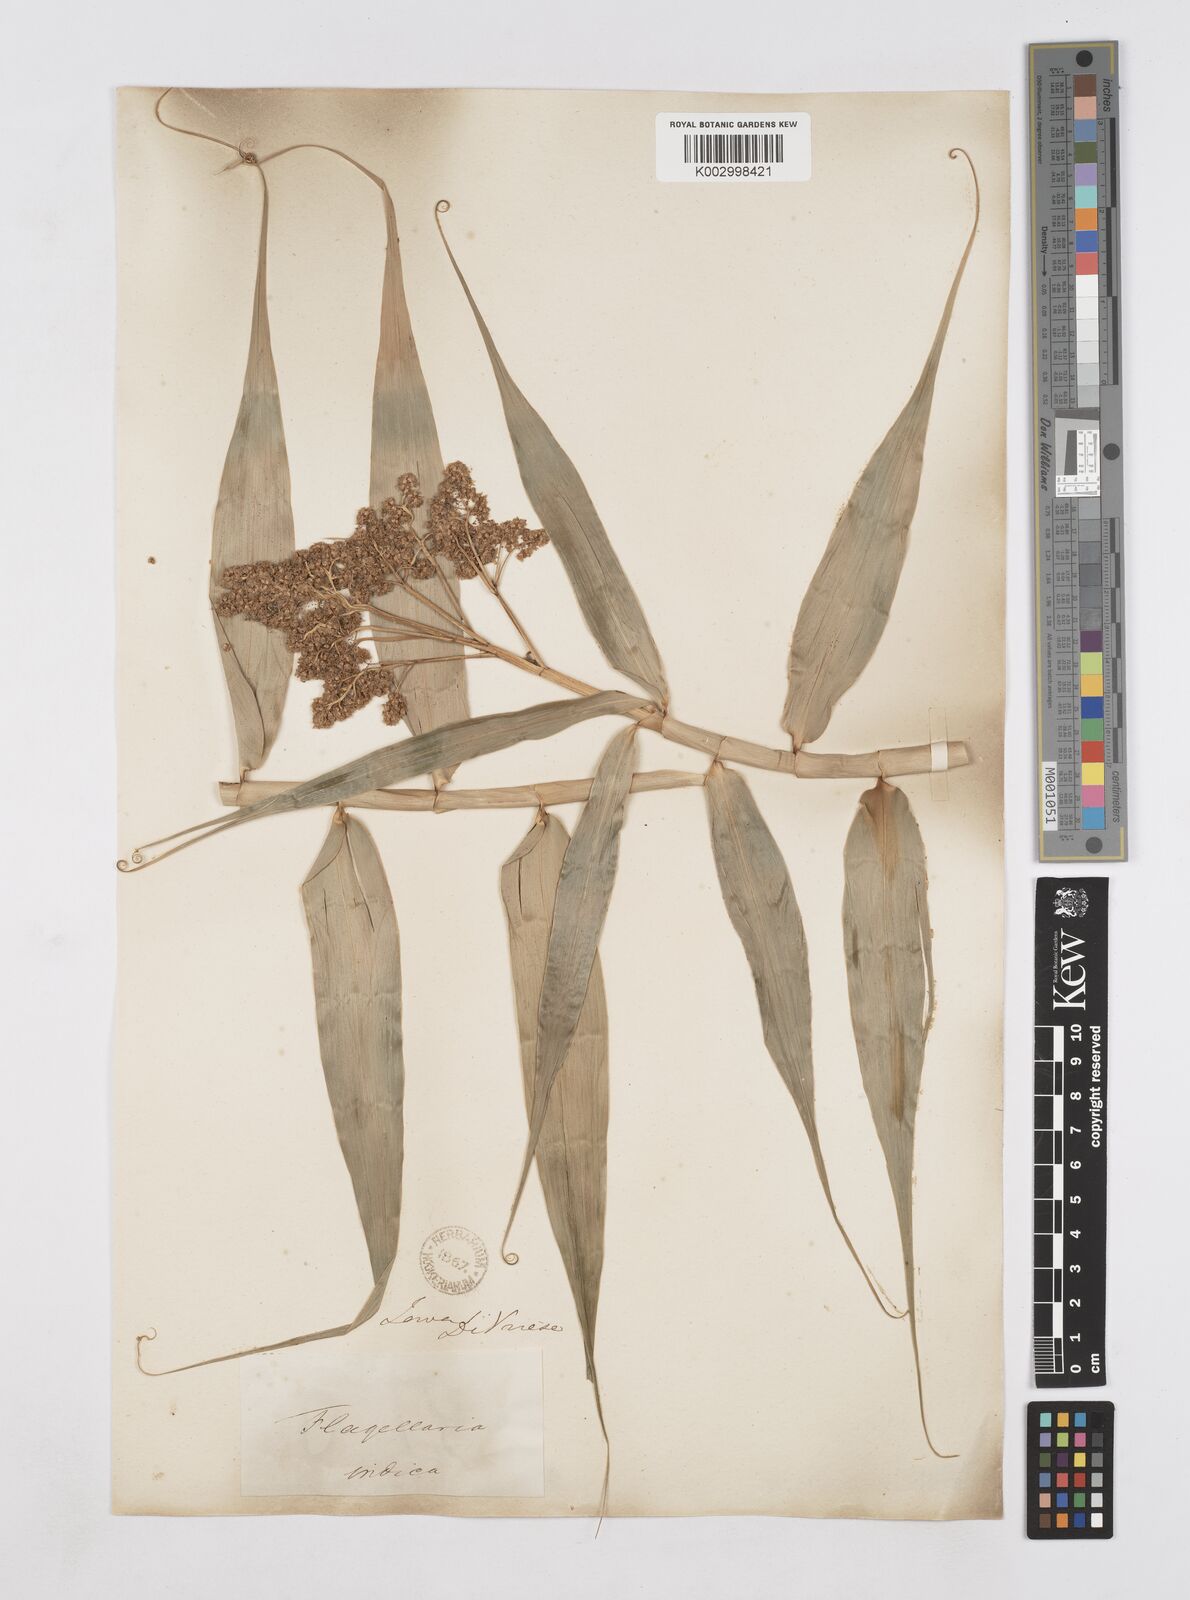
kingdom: Plantae
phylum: Tracheophyta
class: Liliopsida
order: Poales
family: Flagellariaceae
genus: Flagellaria
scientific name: Flagellaria indica
